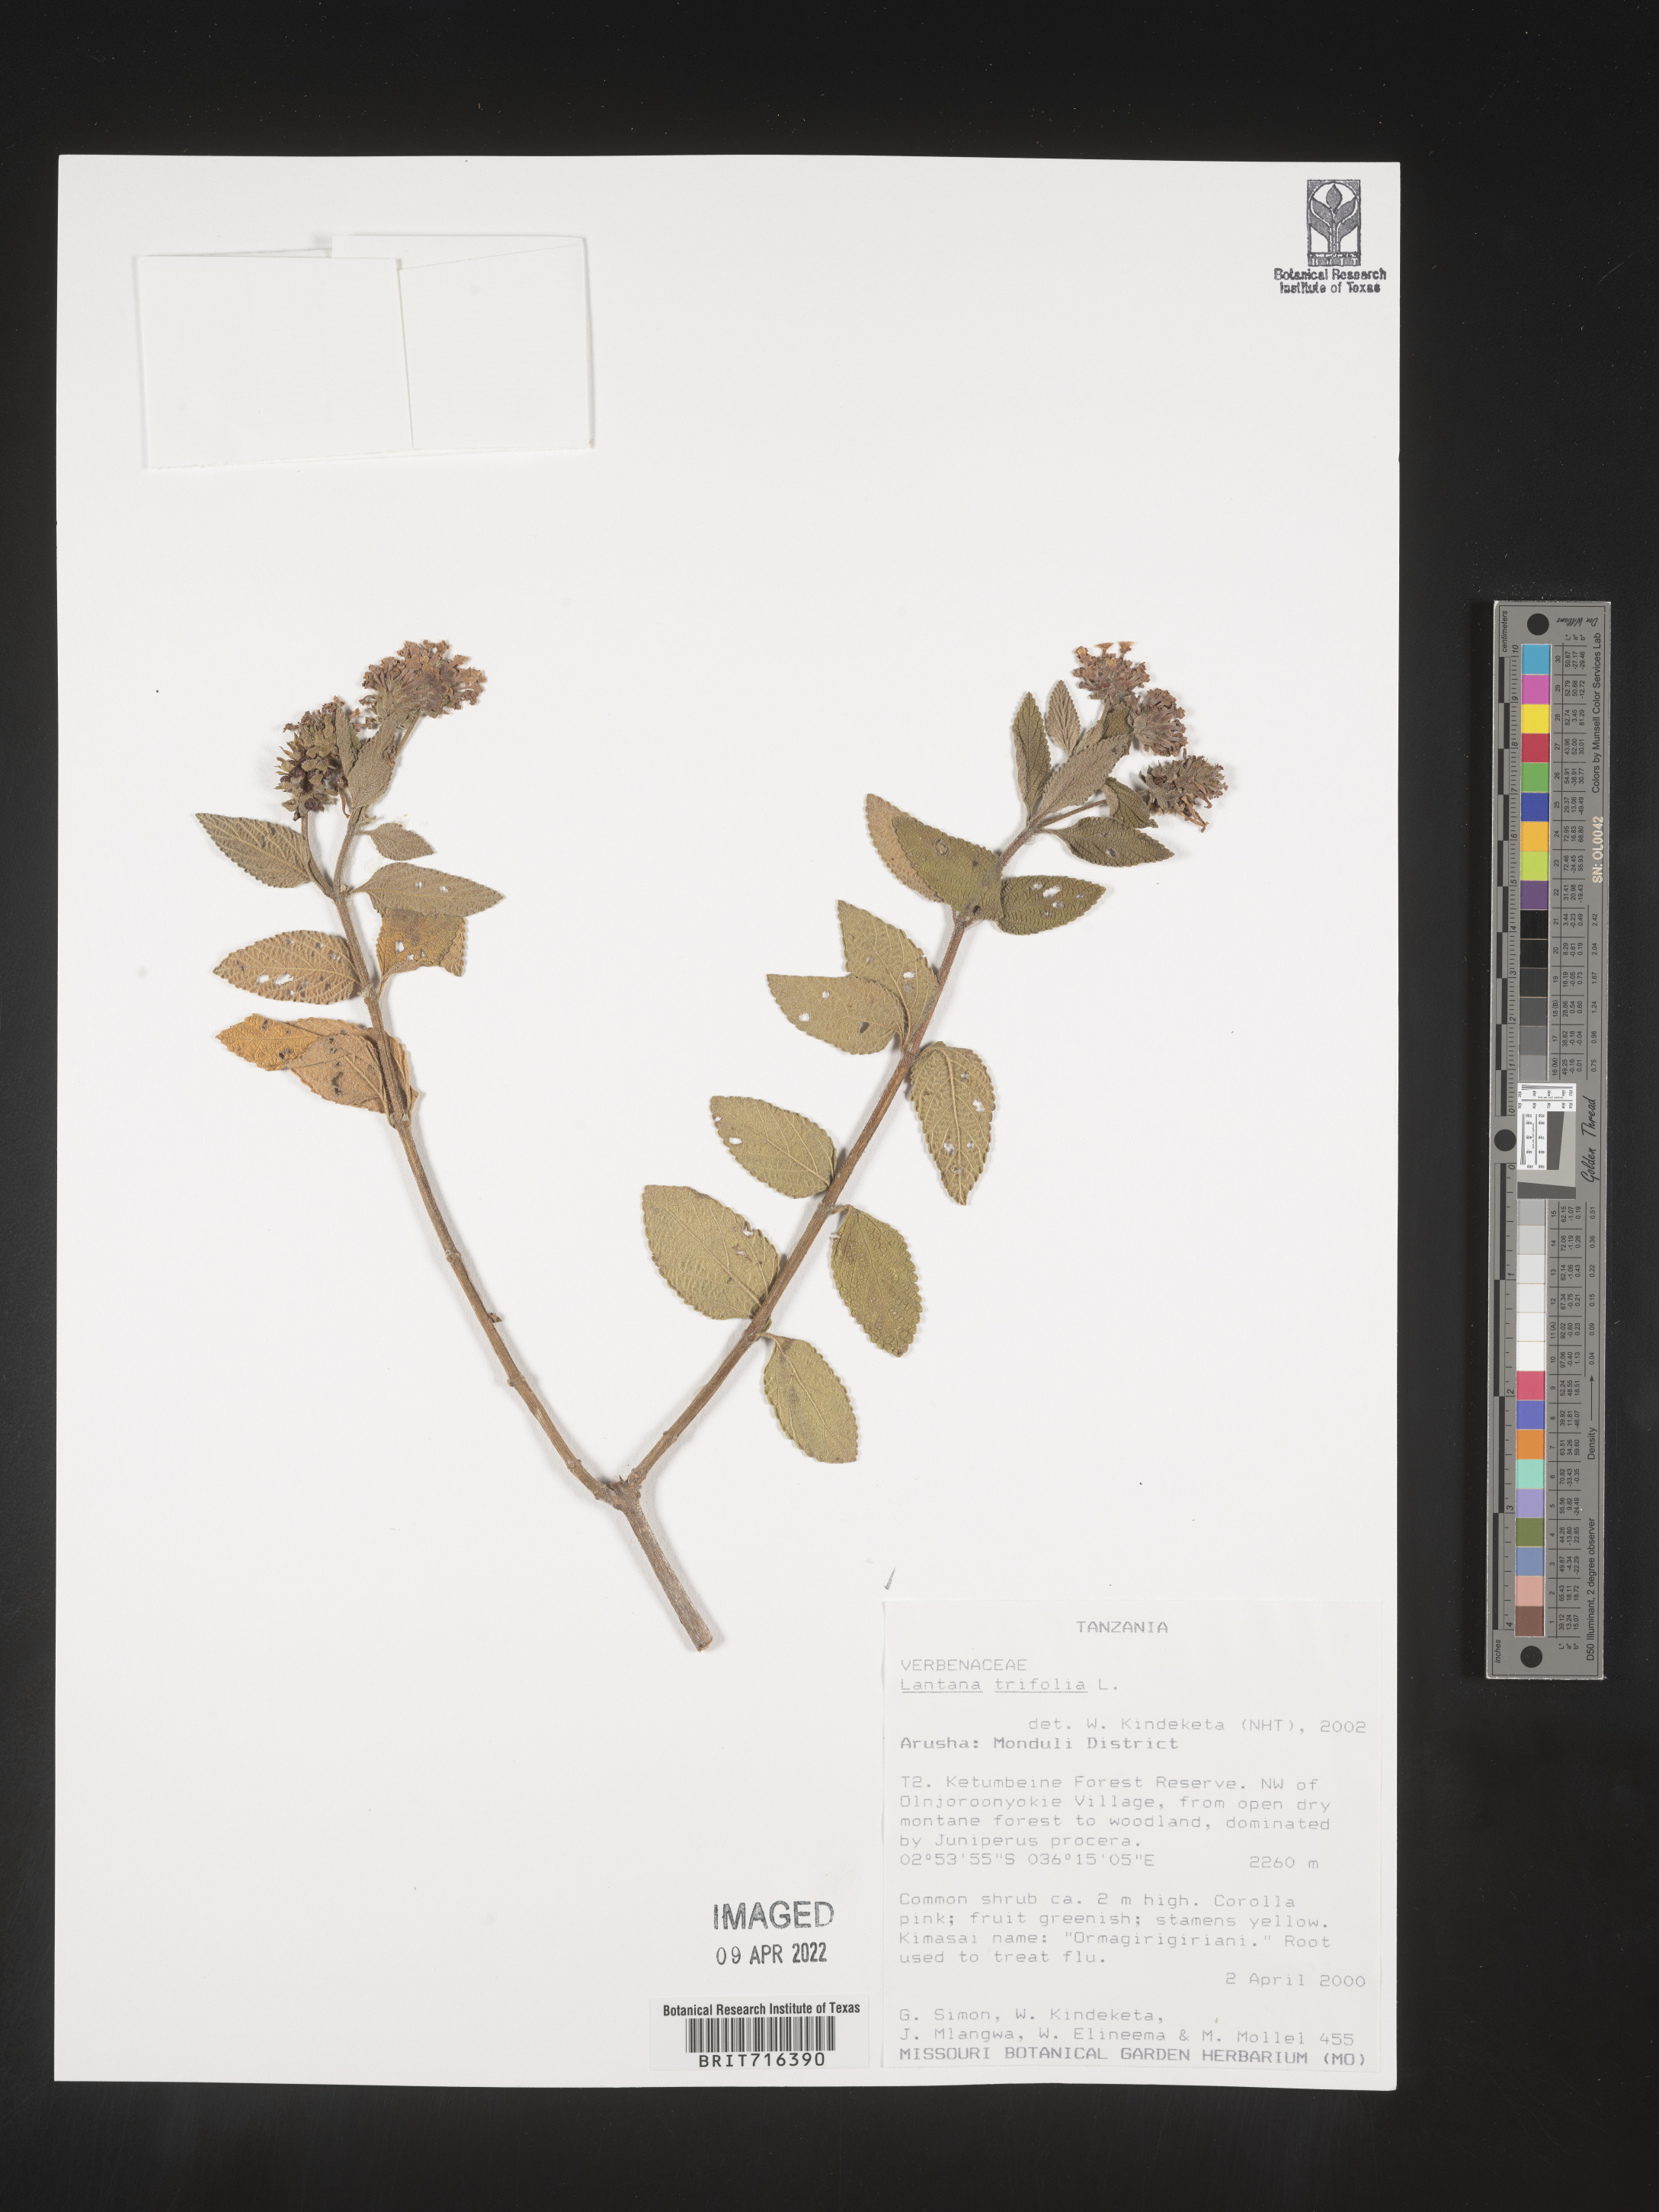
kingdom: Plantae
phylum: Tracheophyta
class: Magnoliopsida
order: Lamiales
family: Verbenaceae
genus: Lantana
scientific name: Lantana
